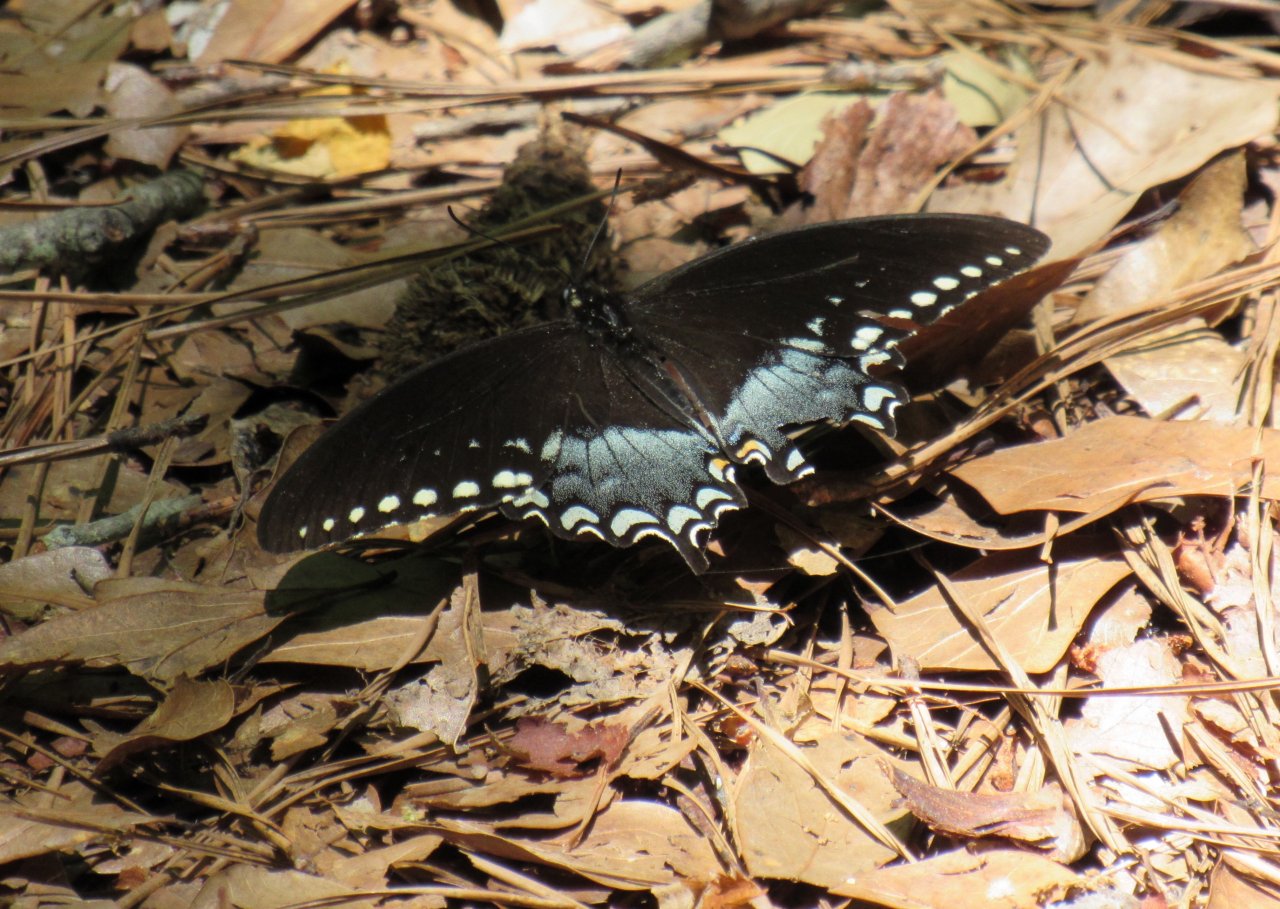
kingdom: Animalia
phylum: Arthropoda
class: Insecta
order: Lepidoptera
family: Papilionidae
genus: Pterourus
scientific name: Pterourus troilus
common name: Spicebush Swallowtail
